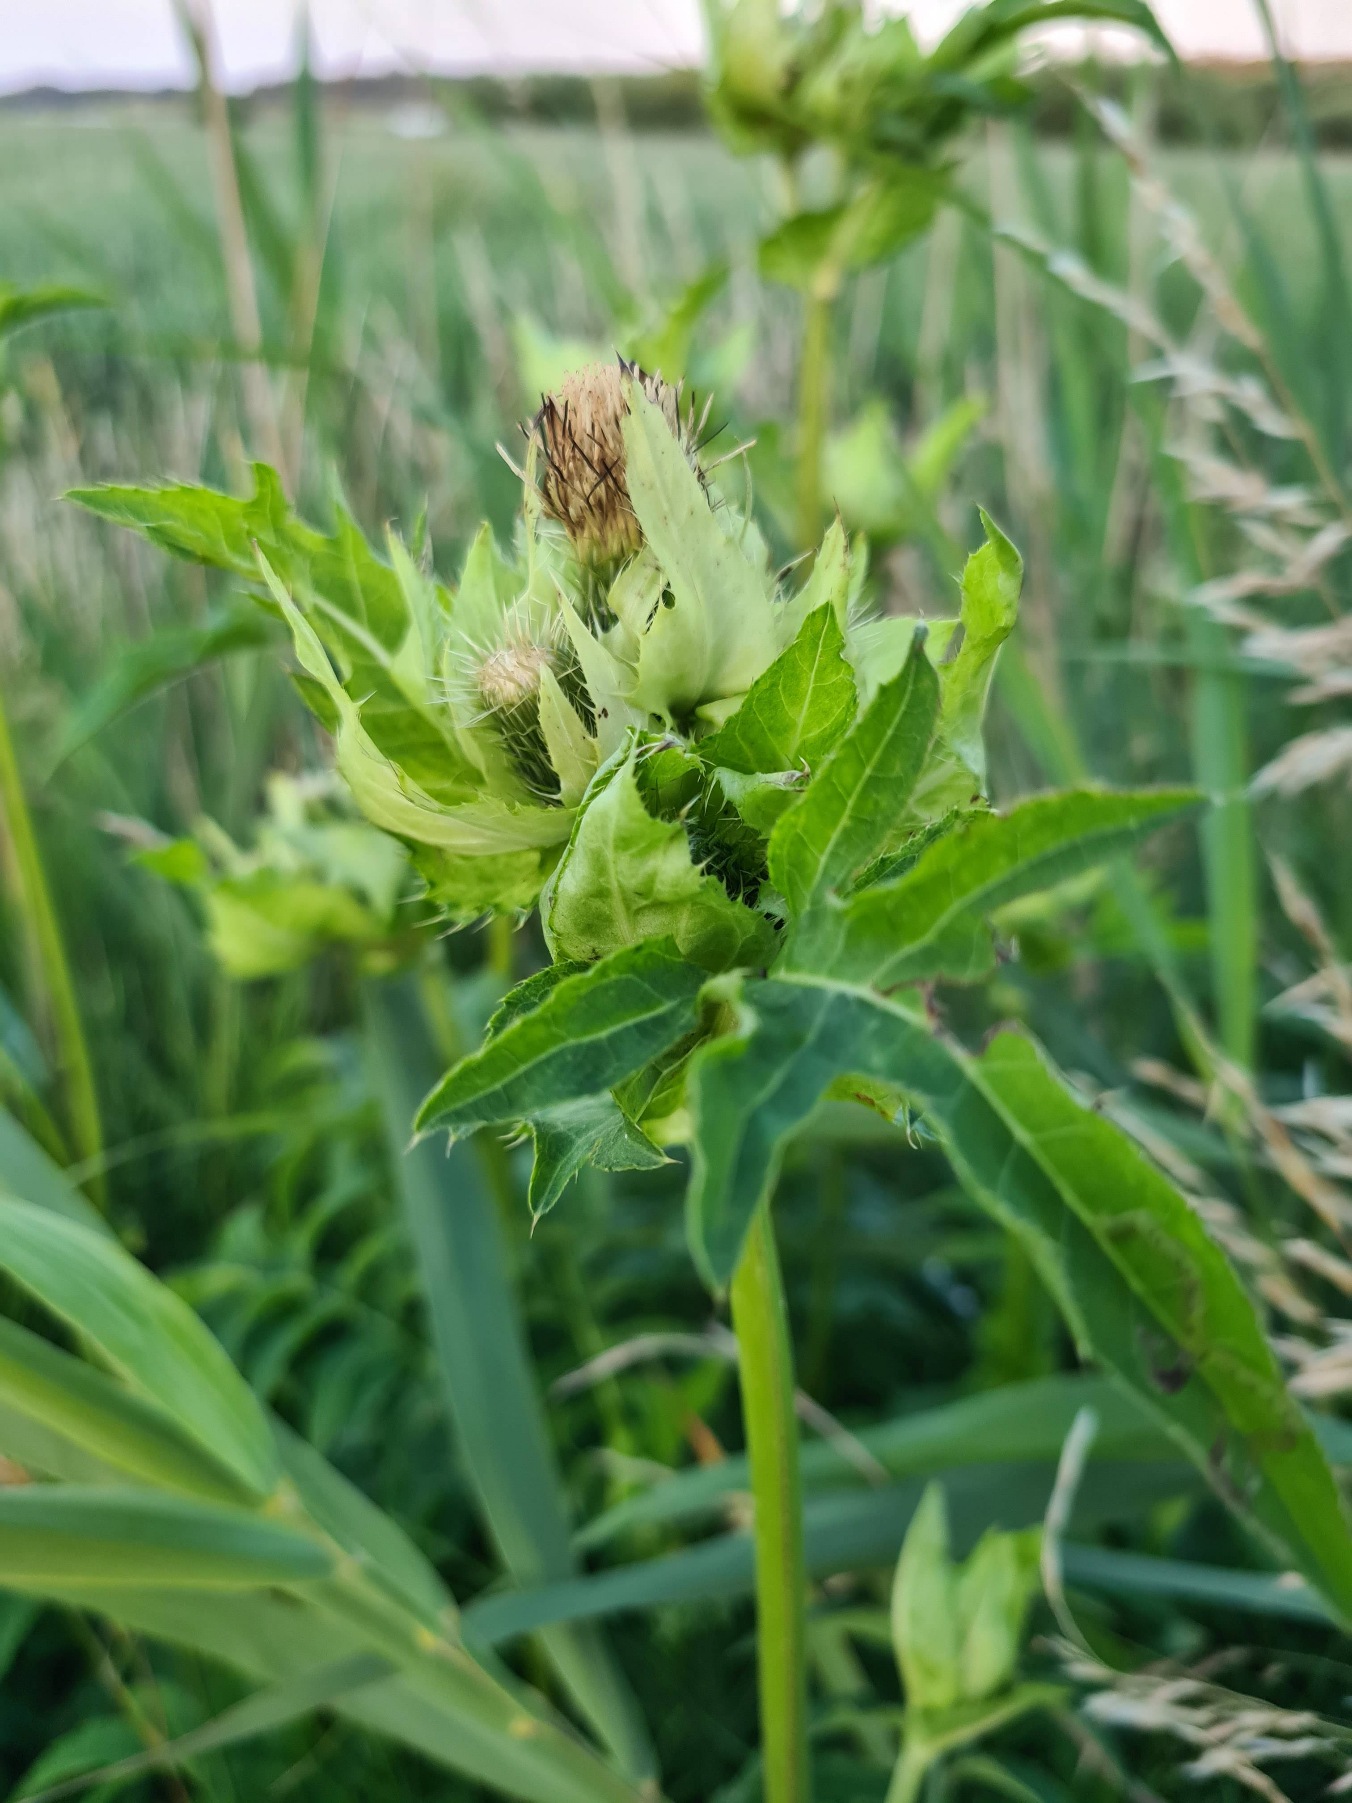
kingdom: Plantae
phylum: Tracheophyta
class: Magnoliopsida
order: Asterales
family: Asteraceae
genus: Cirsium
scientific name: Cirsium oleraceum
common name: Kål-tidsel
